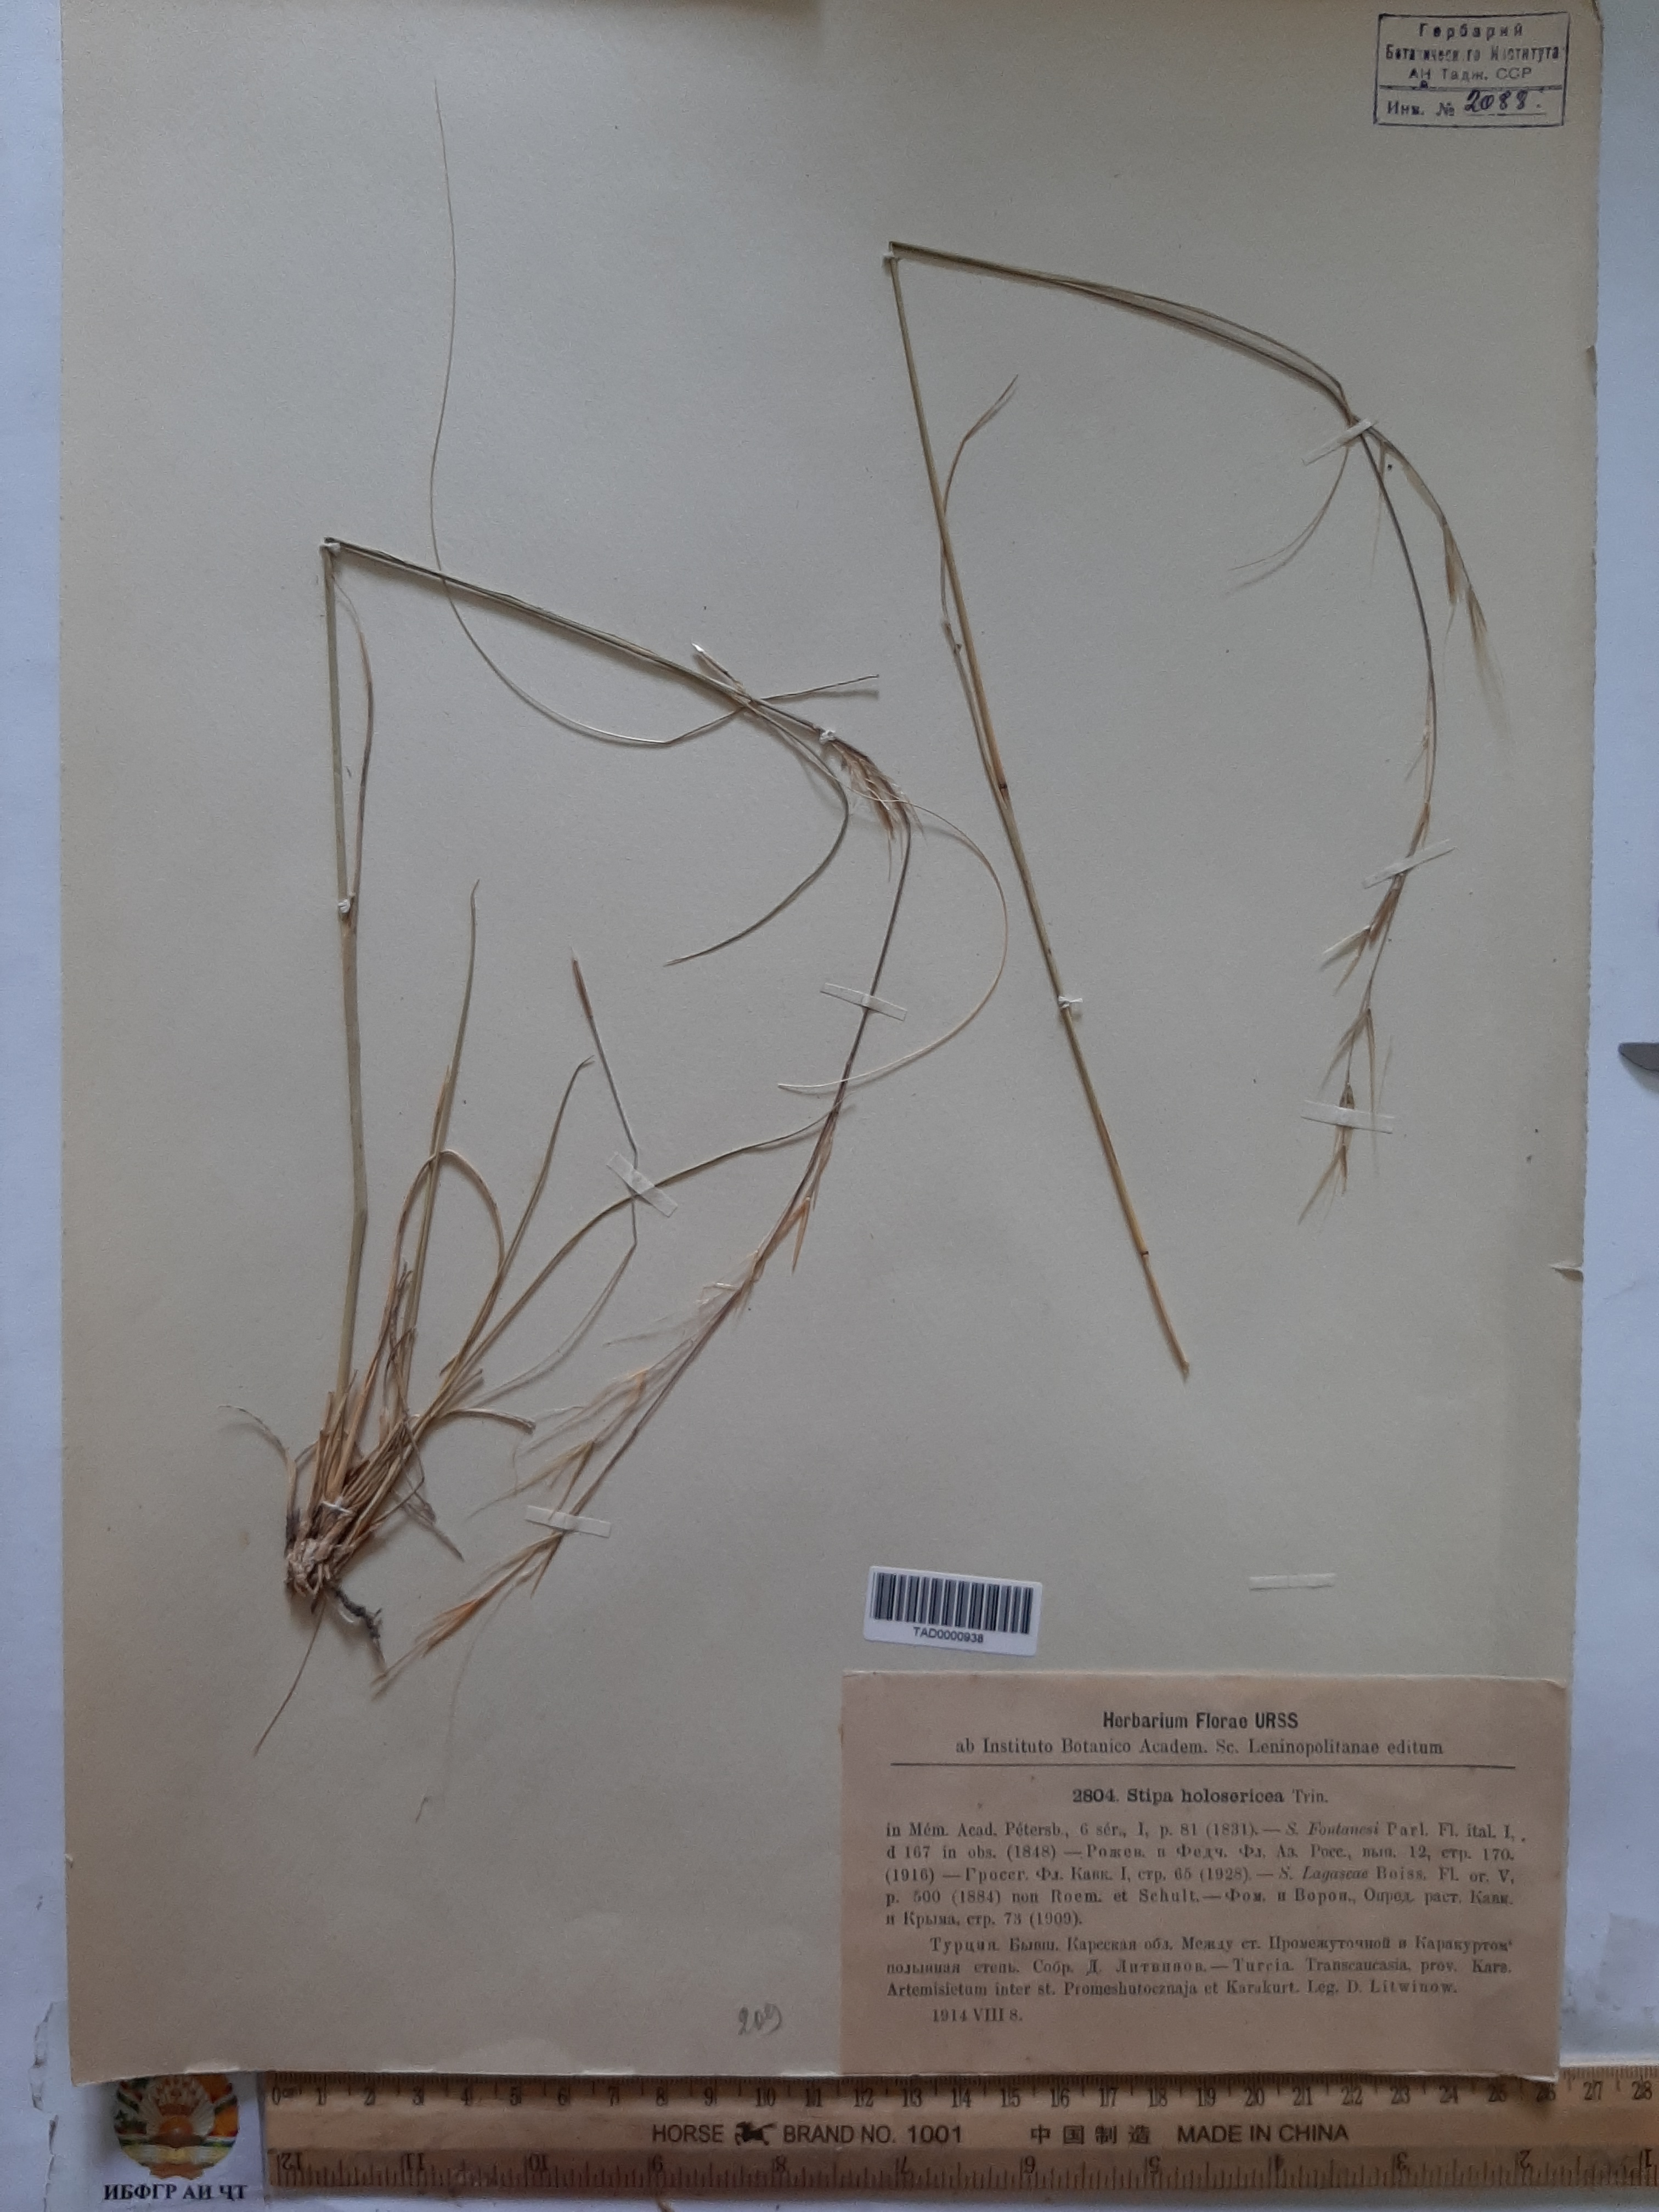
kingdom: Plantae
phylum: Tracheophyta
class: Liliopsida
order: Poales
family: Poaceae
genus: Stipa
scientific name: Stipa holosericea
